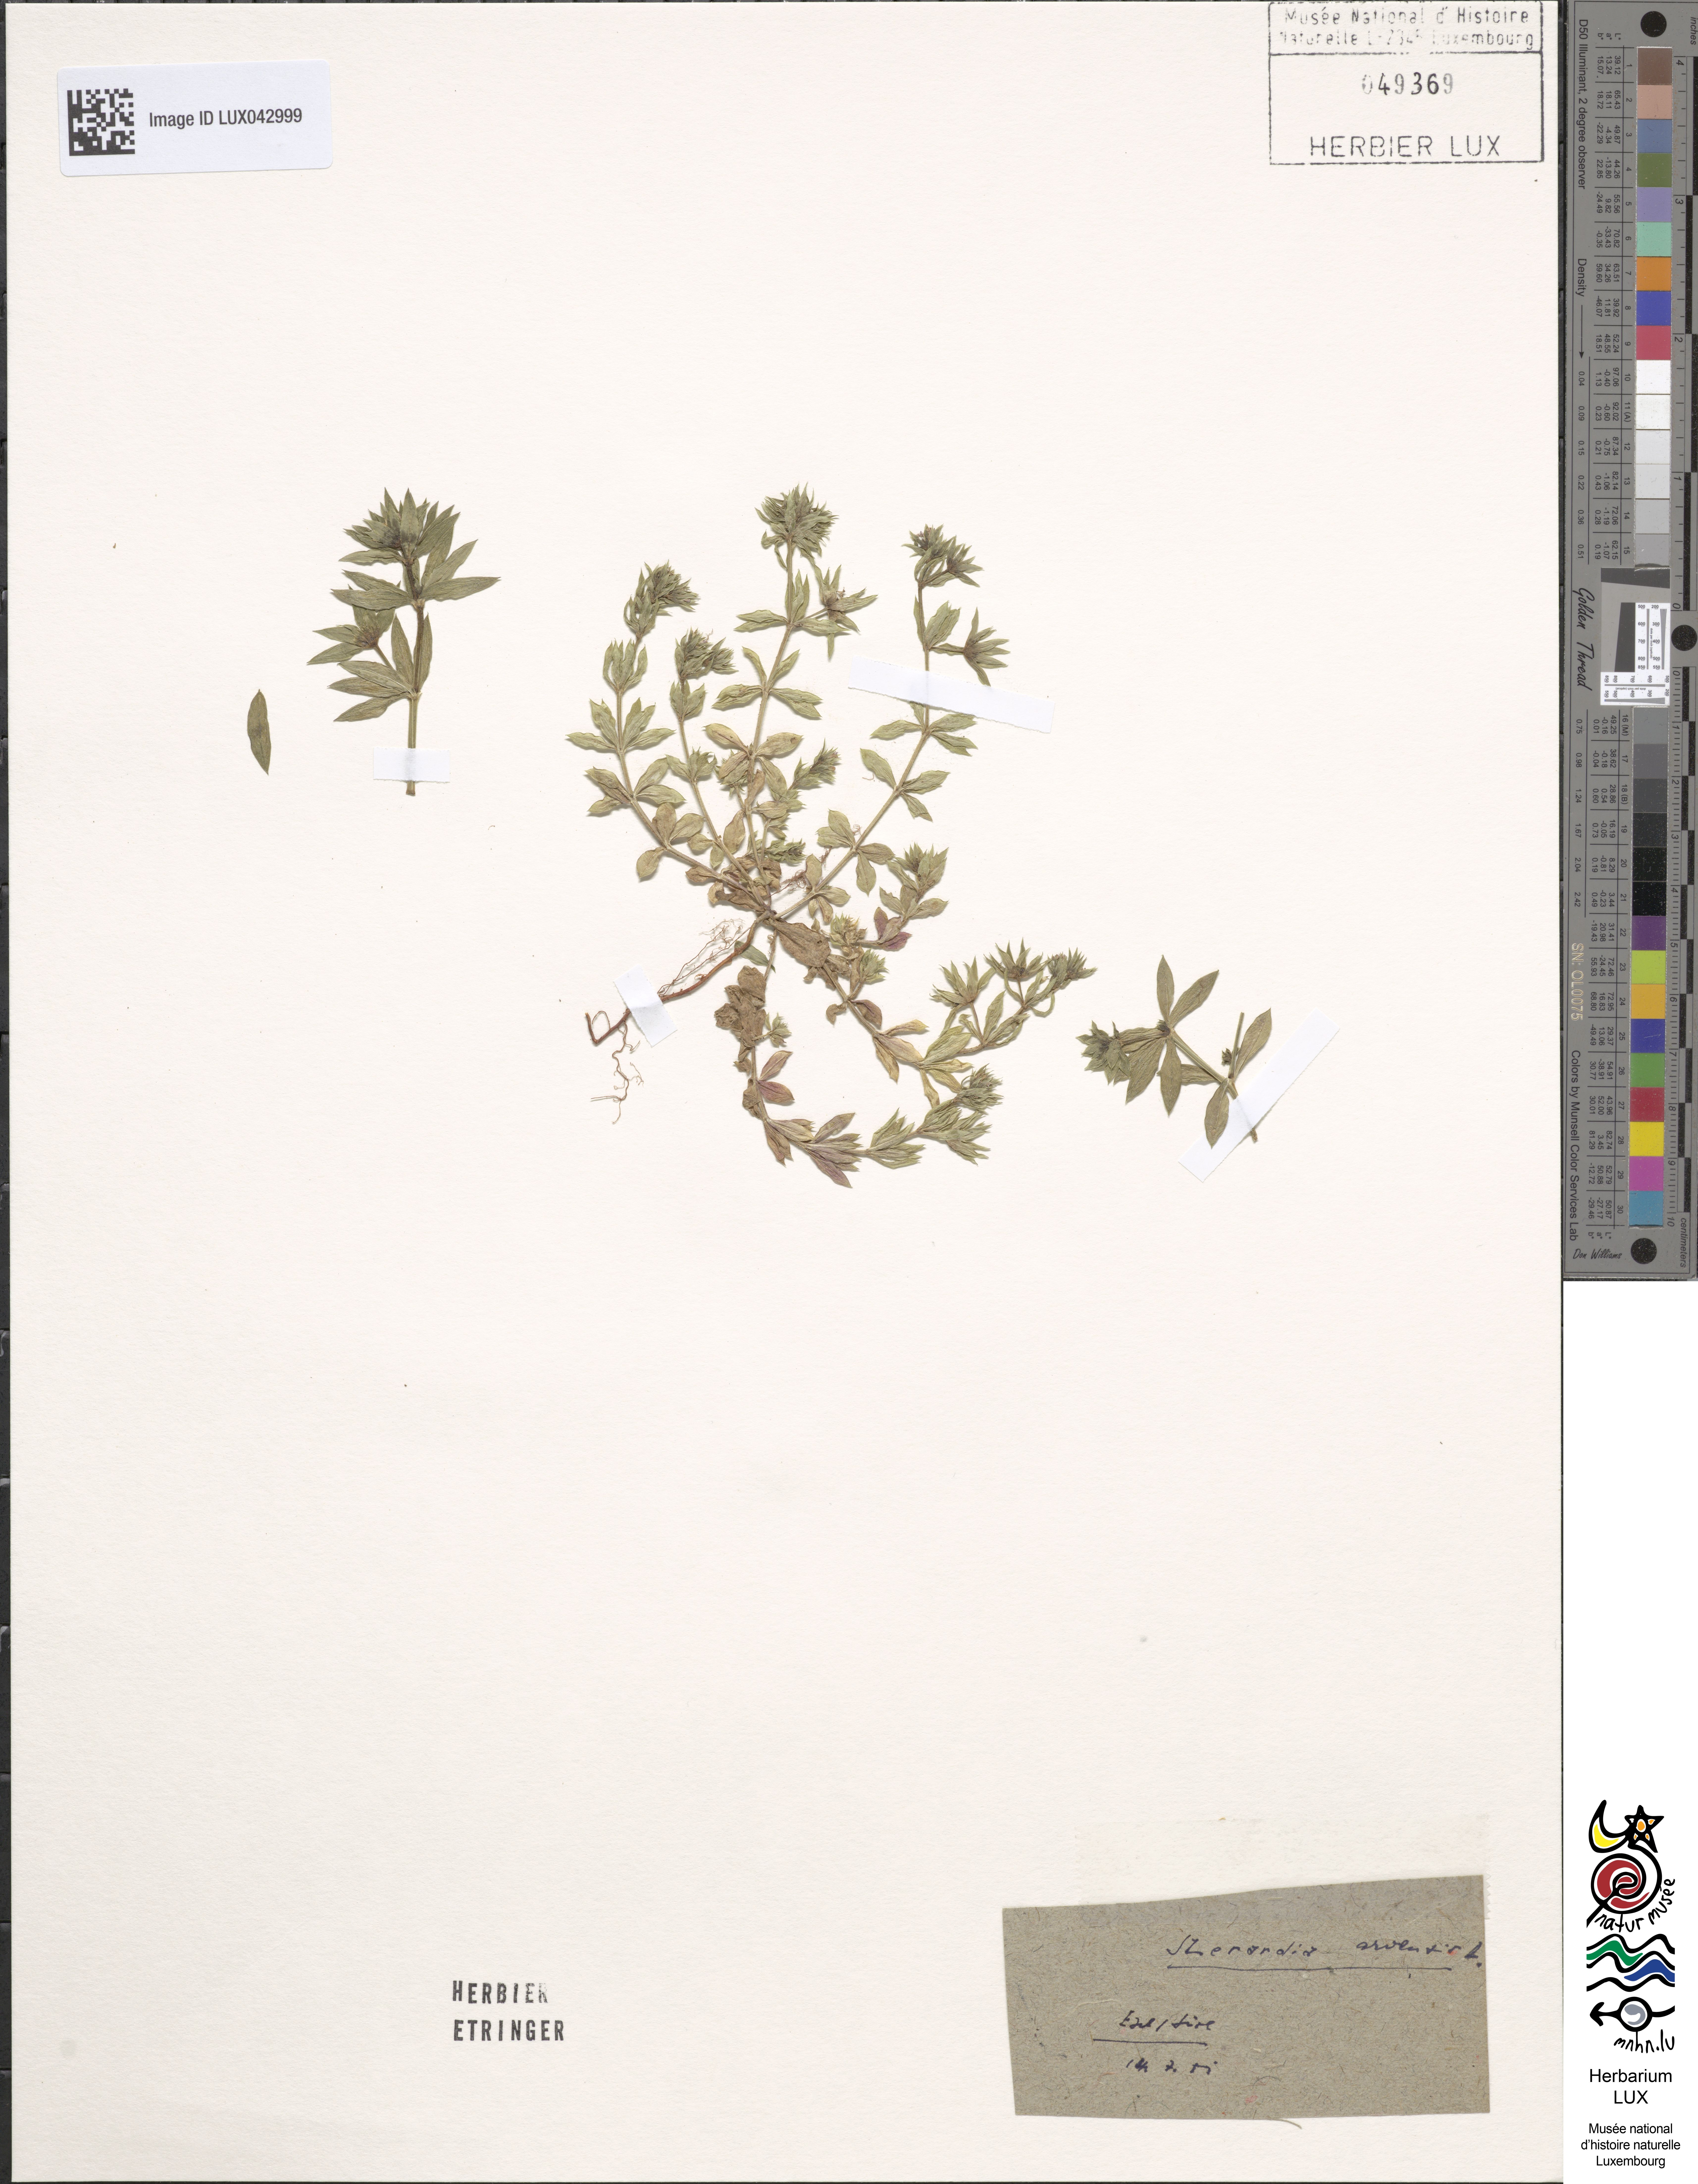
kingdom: Plantae
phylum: Tracheophyta
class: Magnoliopsida
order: Gentianales
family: Rubiaceae
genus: Sherardia
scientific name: Sherardia arvensis
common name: Field madder
